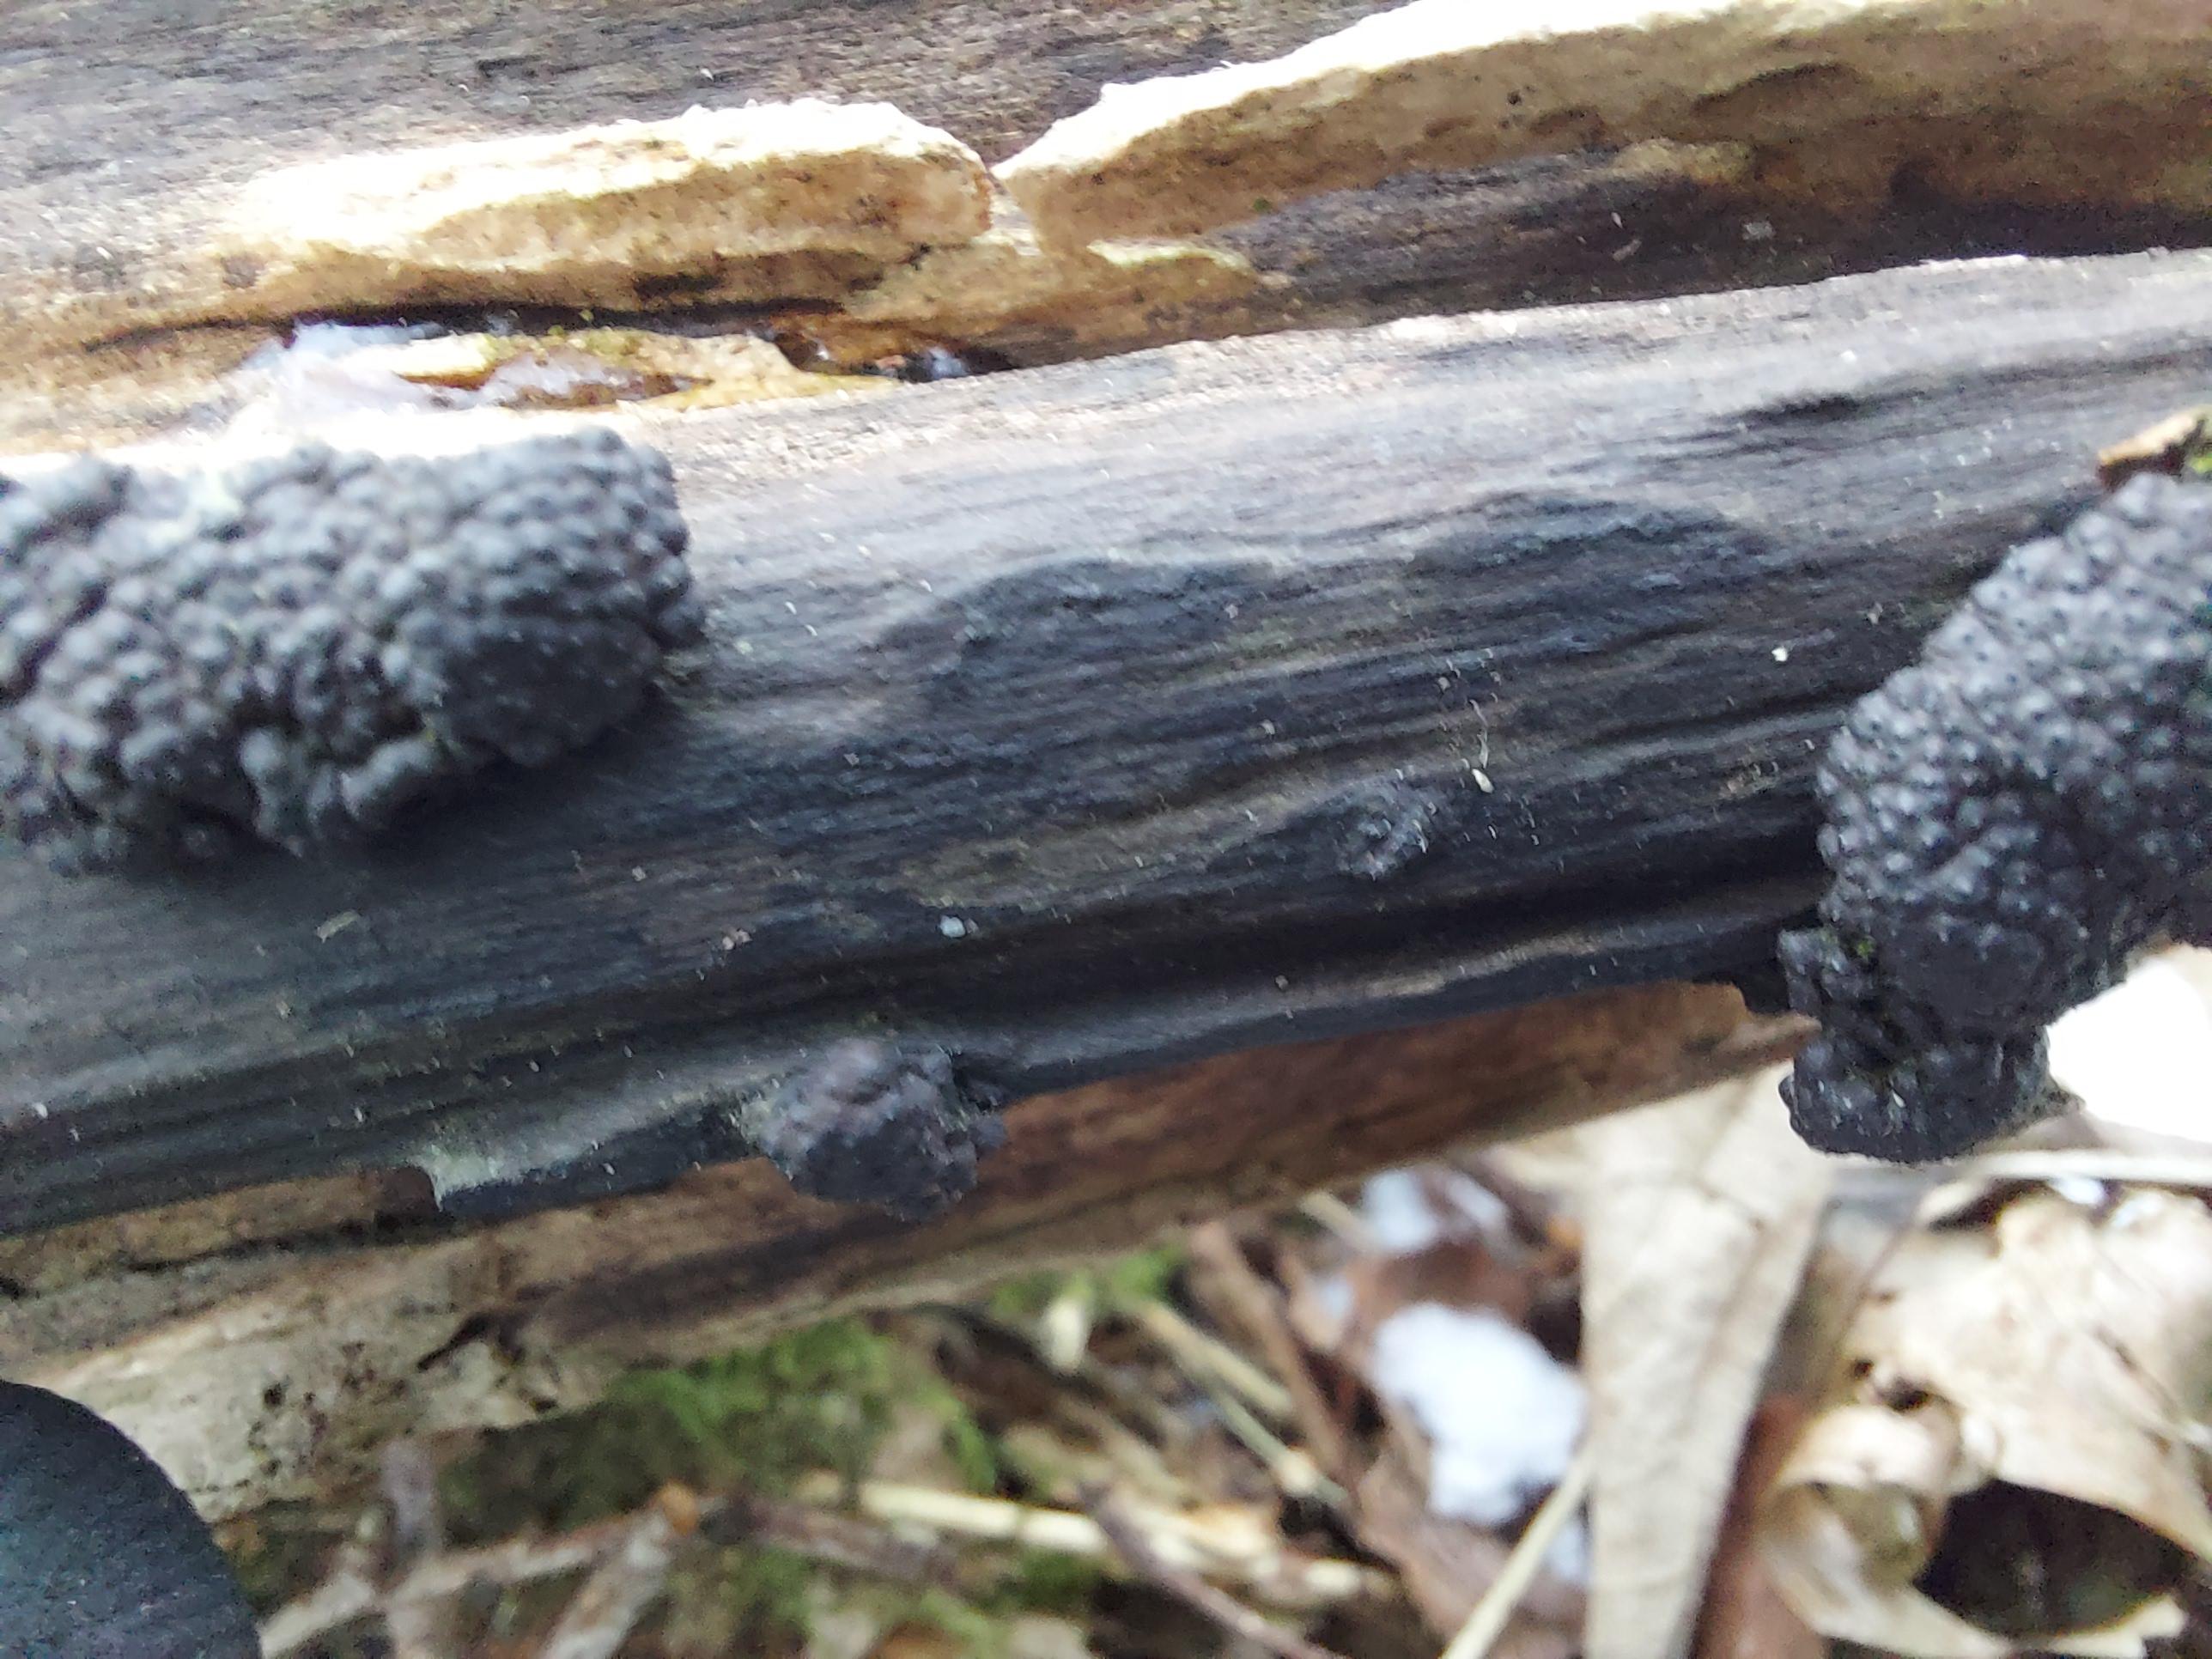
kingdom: Fungi
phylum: Ascomycota
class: Sordariomycetes
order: Xylariales
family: Hypoxylaceae
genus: Jackrogersella
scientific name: Jackrogersella multiformis
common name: foranderlig kulbær
